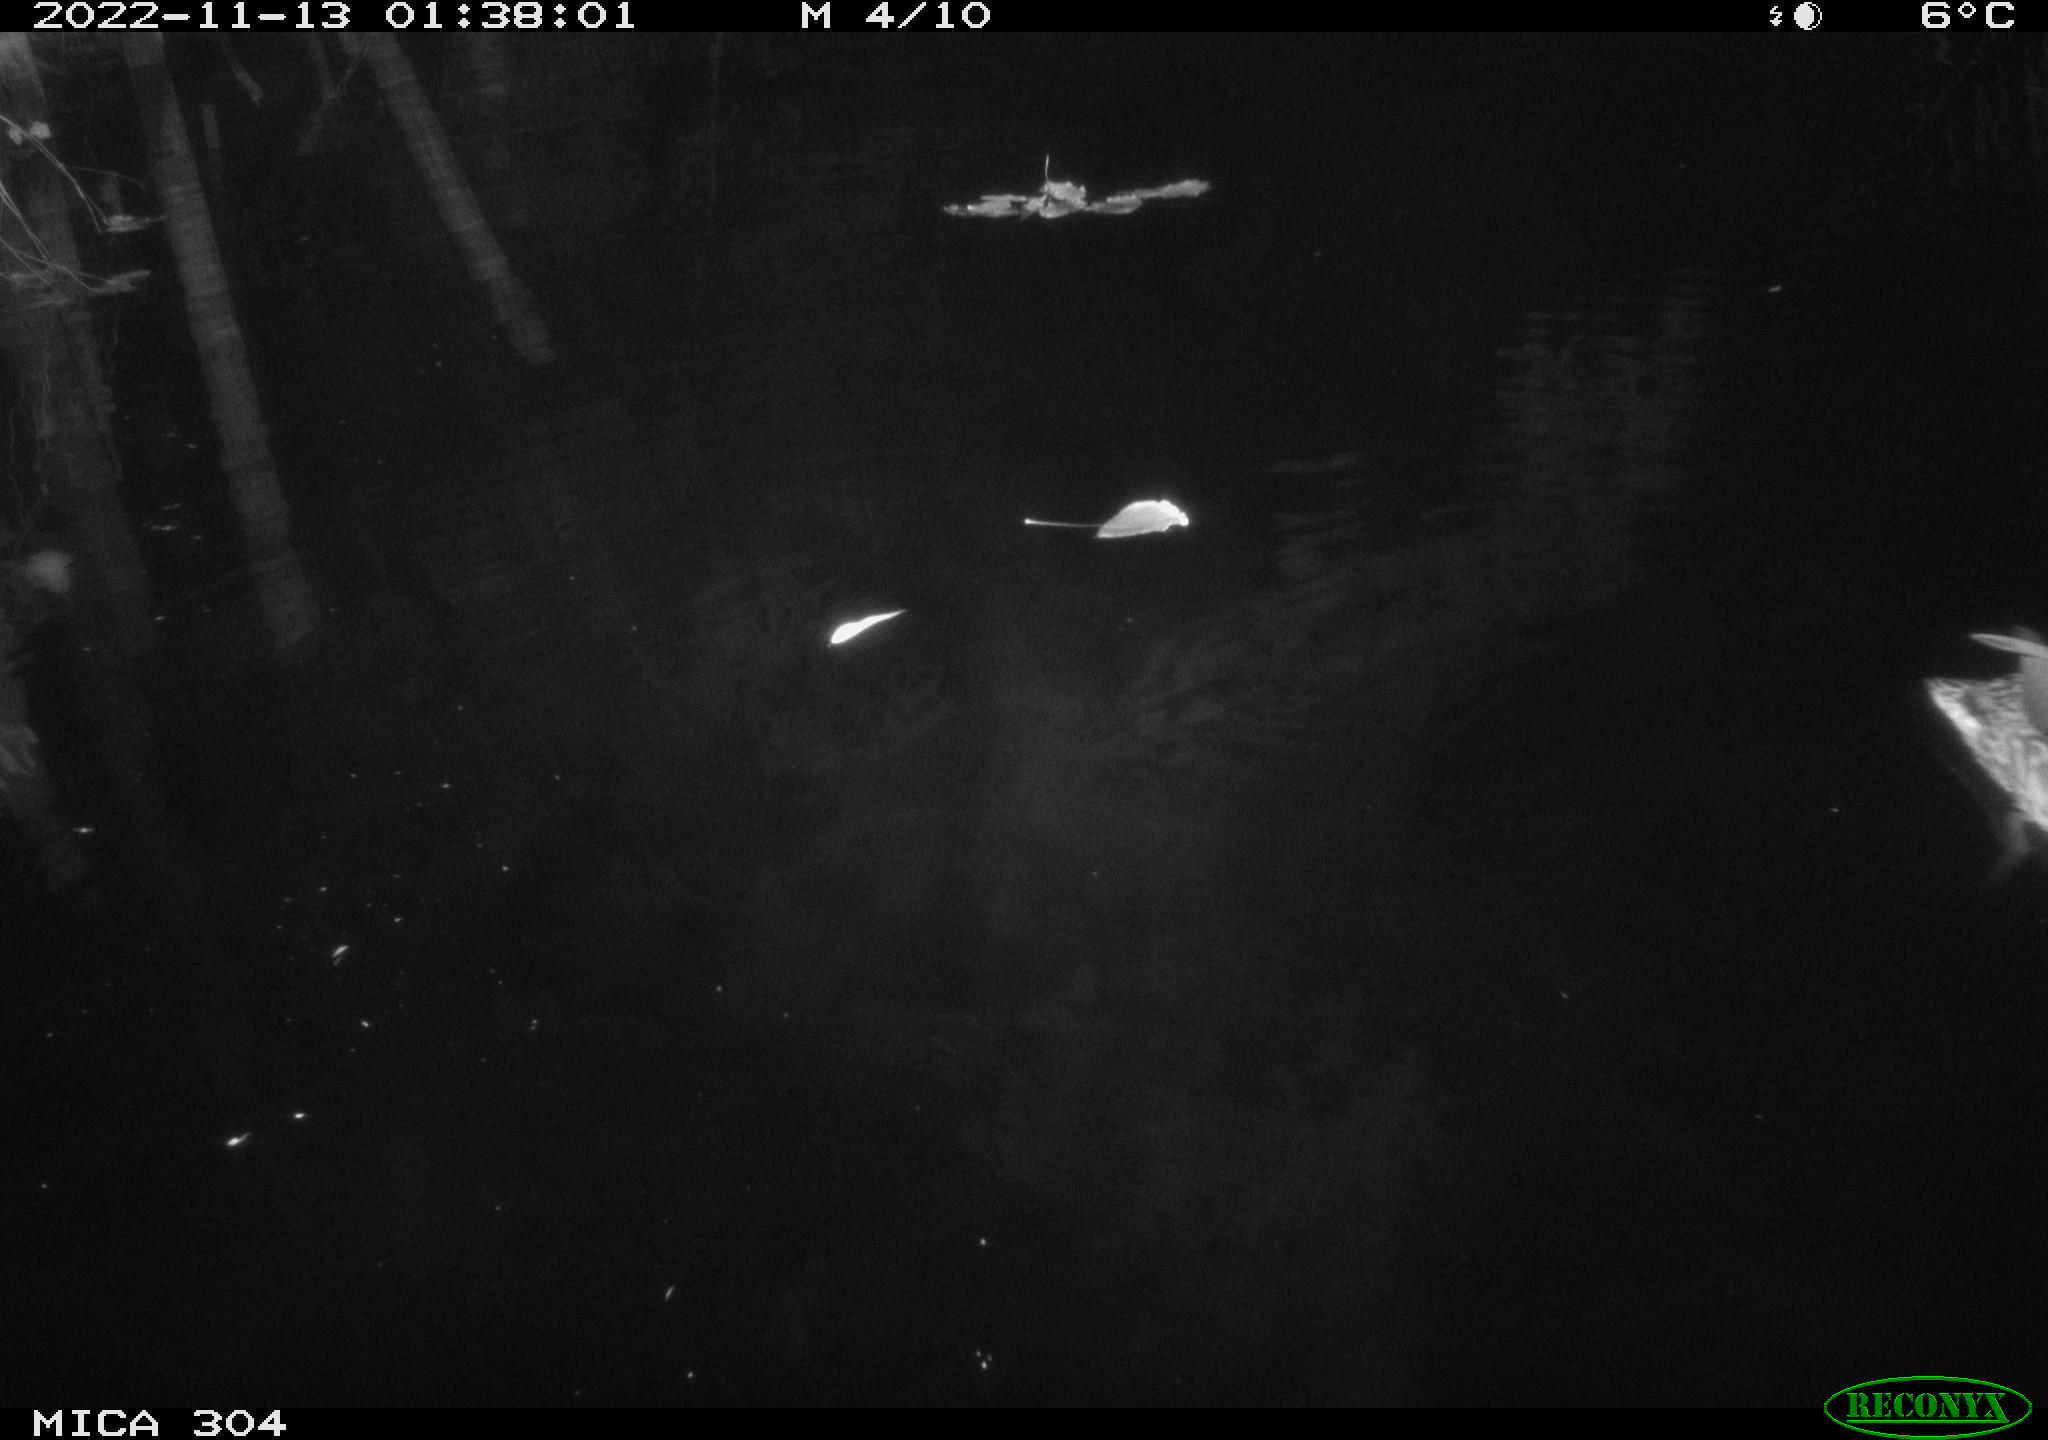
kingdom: Animalia
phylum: Chordata
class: Aves
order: Anseriformes
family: Anatidae
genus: Anas
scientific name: Anas
